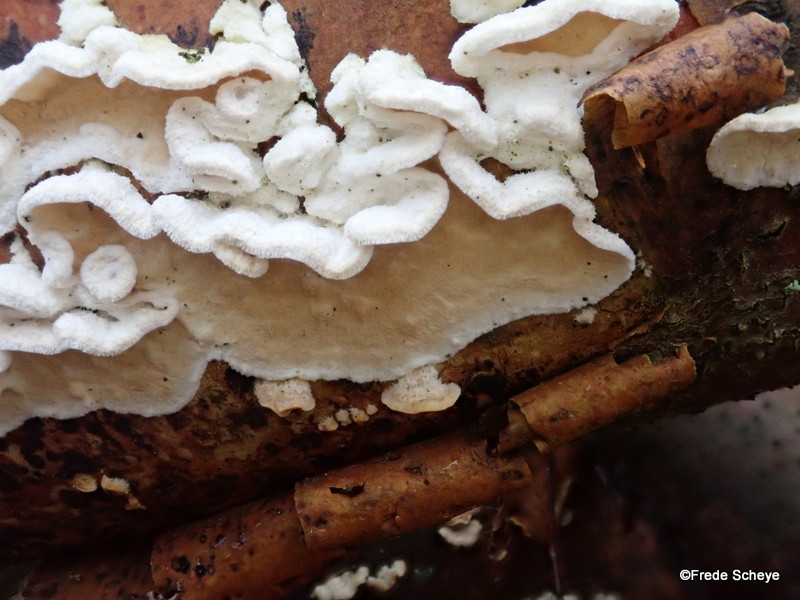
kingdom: Fungi
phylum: Basidiomycota
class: Agaricomycetes
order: Polyporales
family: Irpicaceae
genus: Byssomerulius
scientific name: Byssomerulius corium
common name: læder-åresvamp
